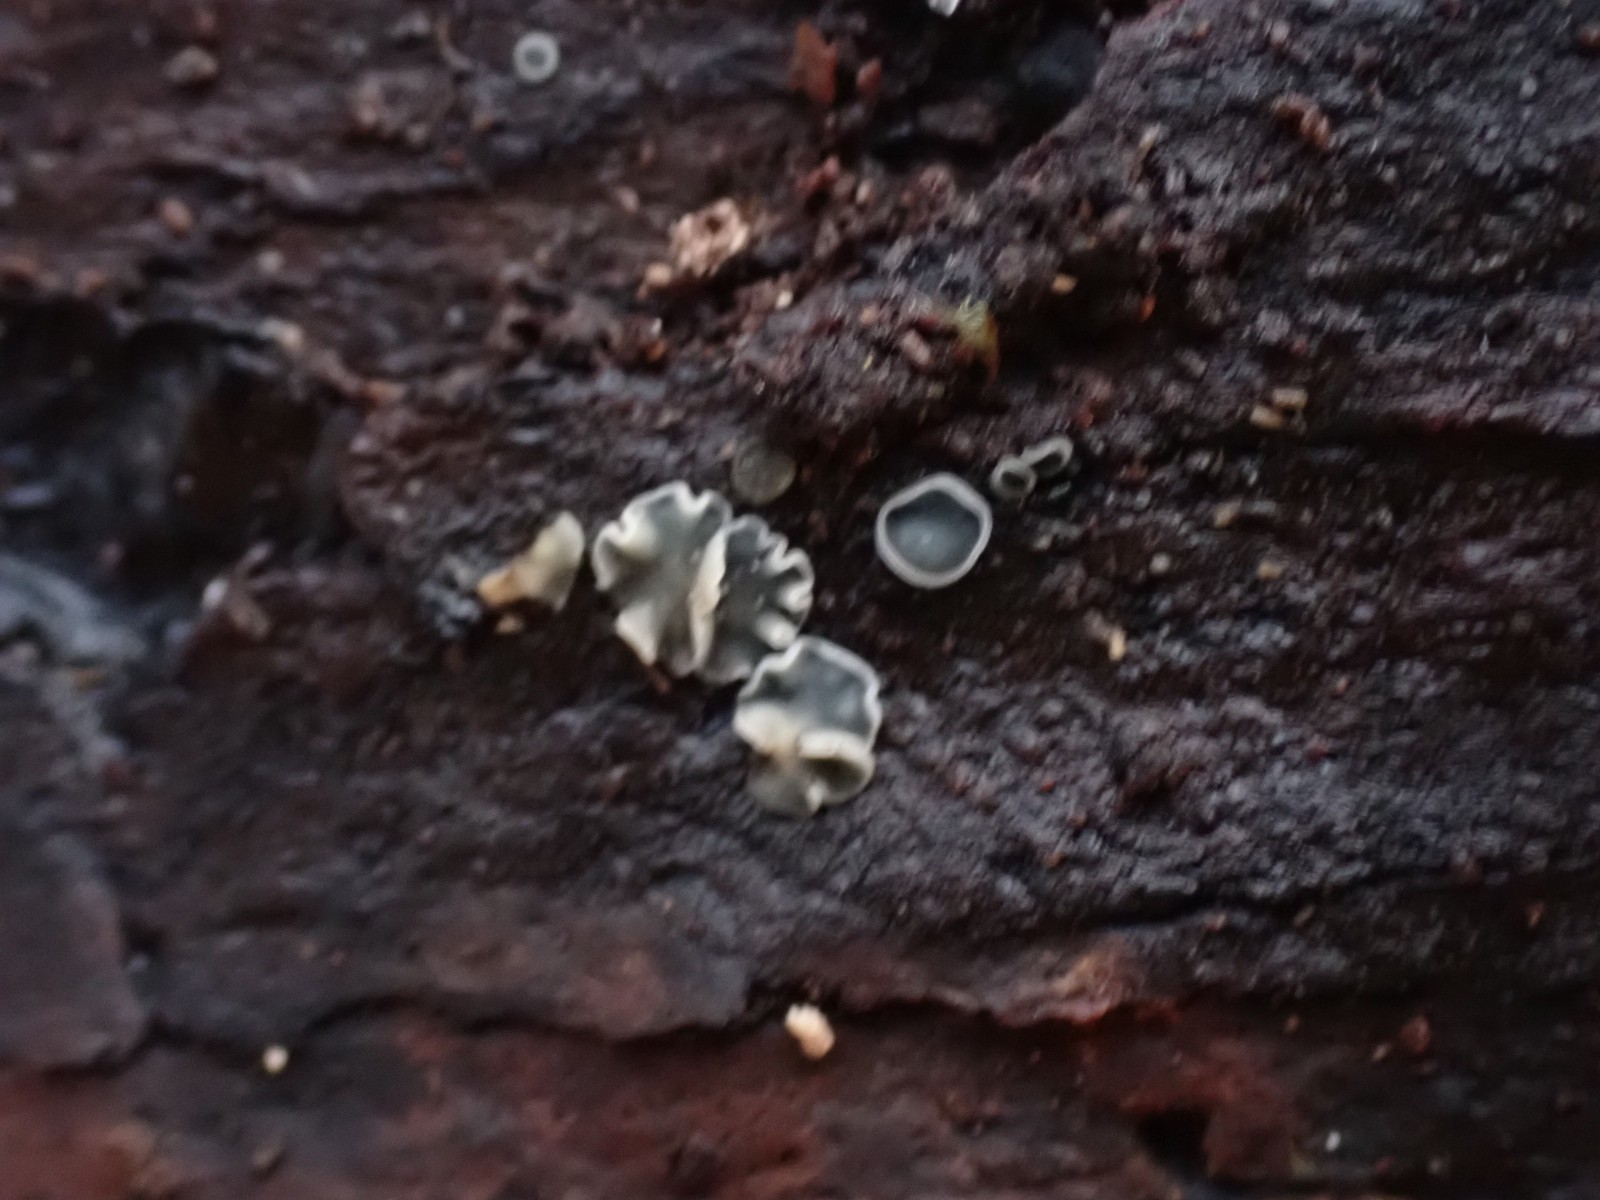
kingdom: Fungi
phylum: Ascomycota
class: Leotiomycetes
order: Helotiales
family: Mollisiaceae
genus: Mollisia
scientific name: Mollisia
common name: gråskive
